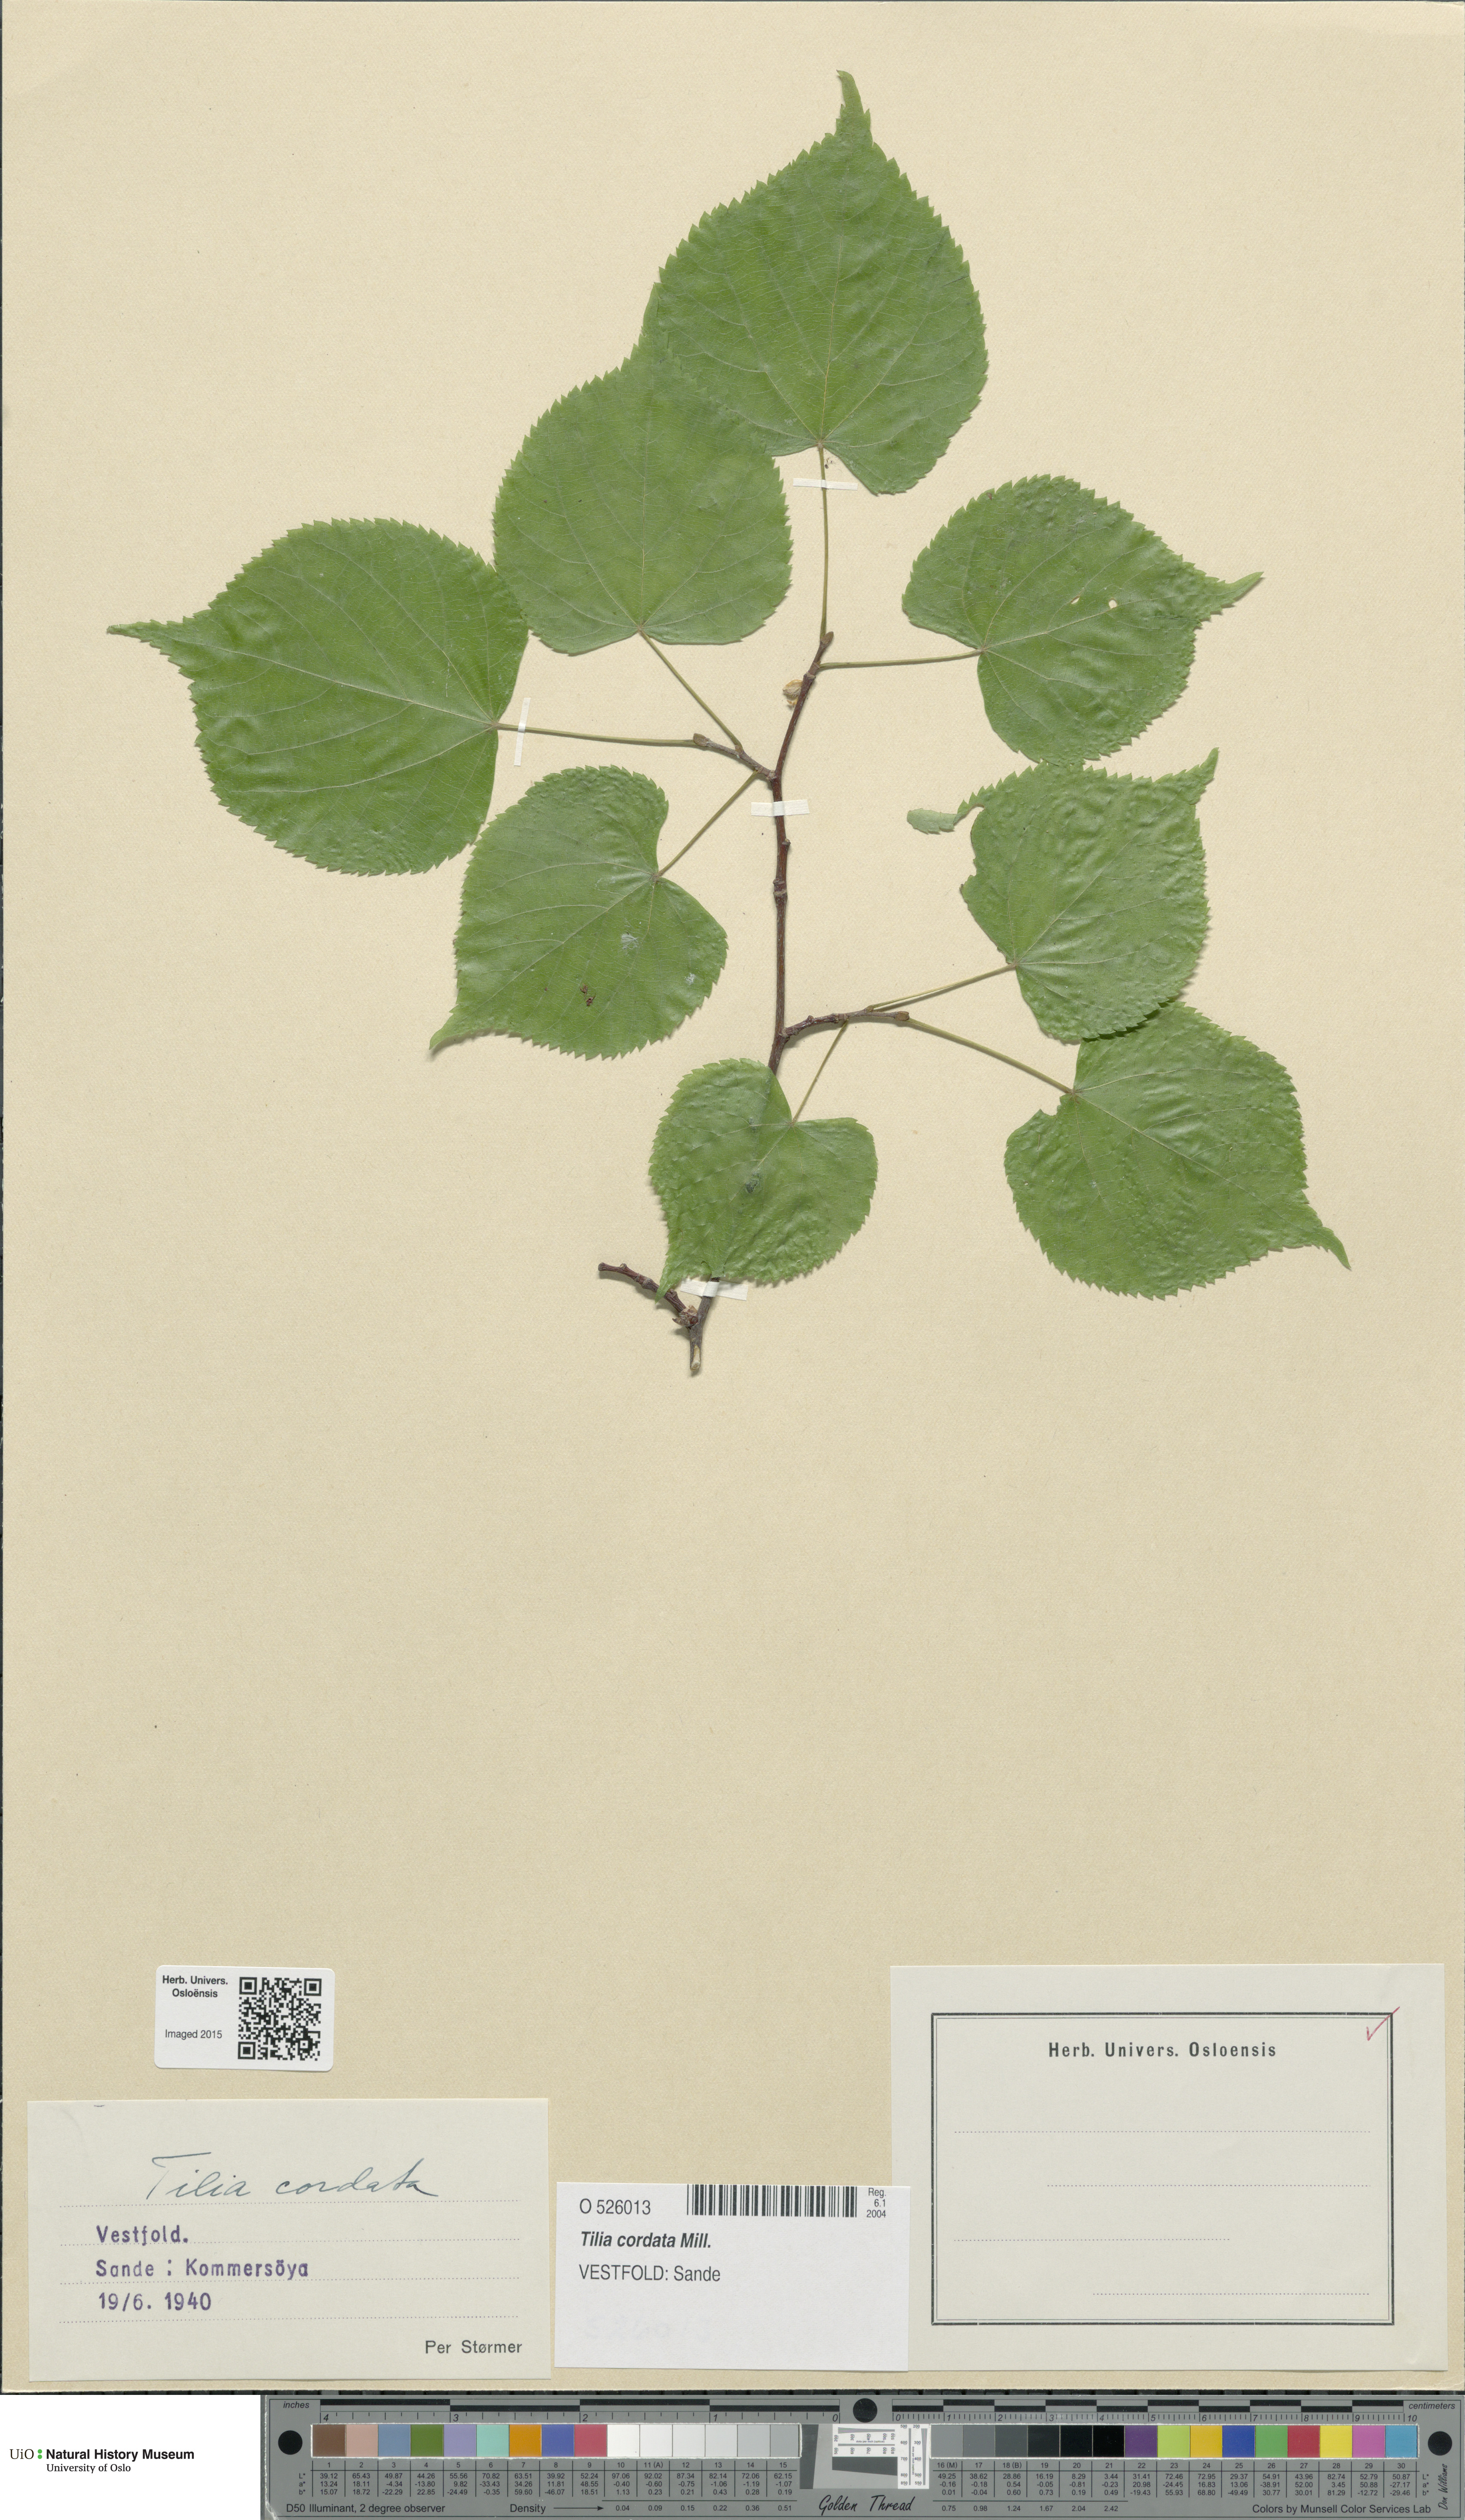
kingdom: Plantae
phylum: Tracheophyta
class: Magnoliopsida
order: Malvales
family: Malvaceae
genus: Tilia
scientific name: Tilia cordata
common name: Small-leaved lime
